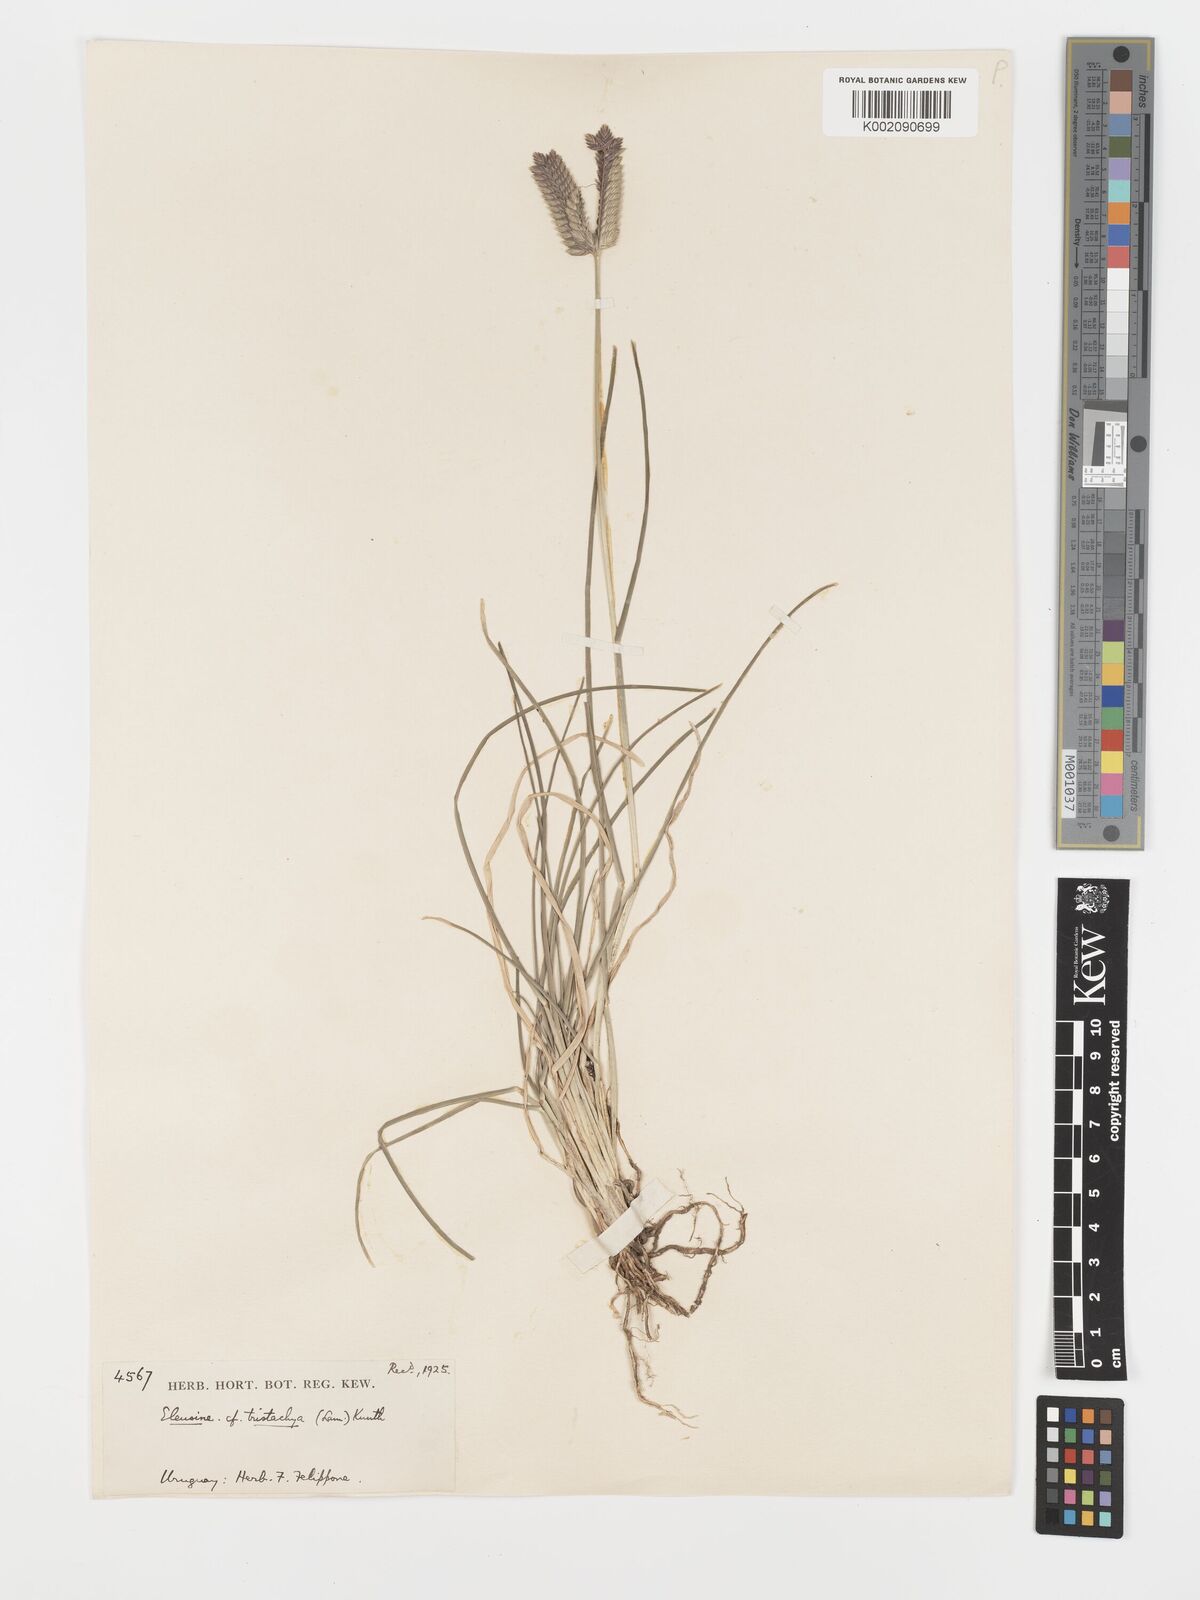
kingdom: Plantae
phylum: Tracheophyta
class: Liliopsida
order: Poales
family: Poaceae
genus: Eleusine
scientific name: Eleusine tristachya
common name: American yard-grass
